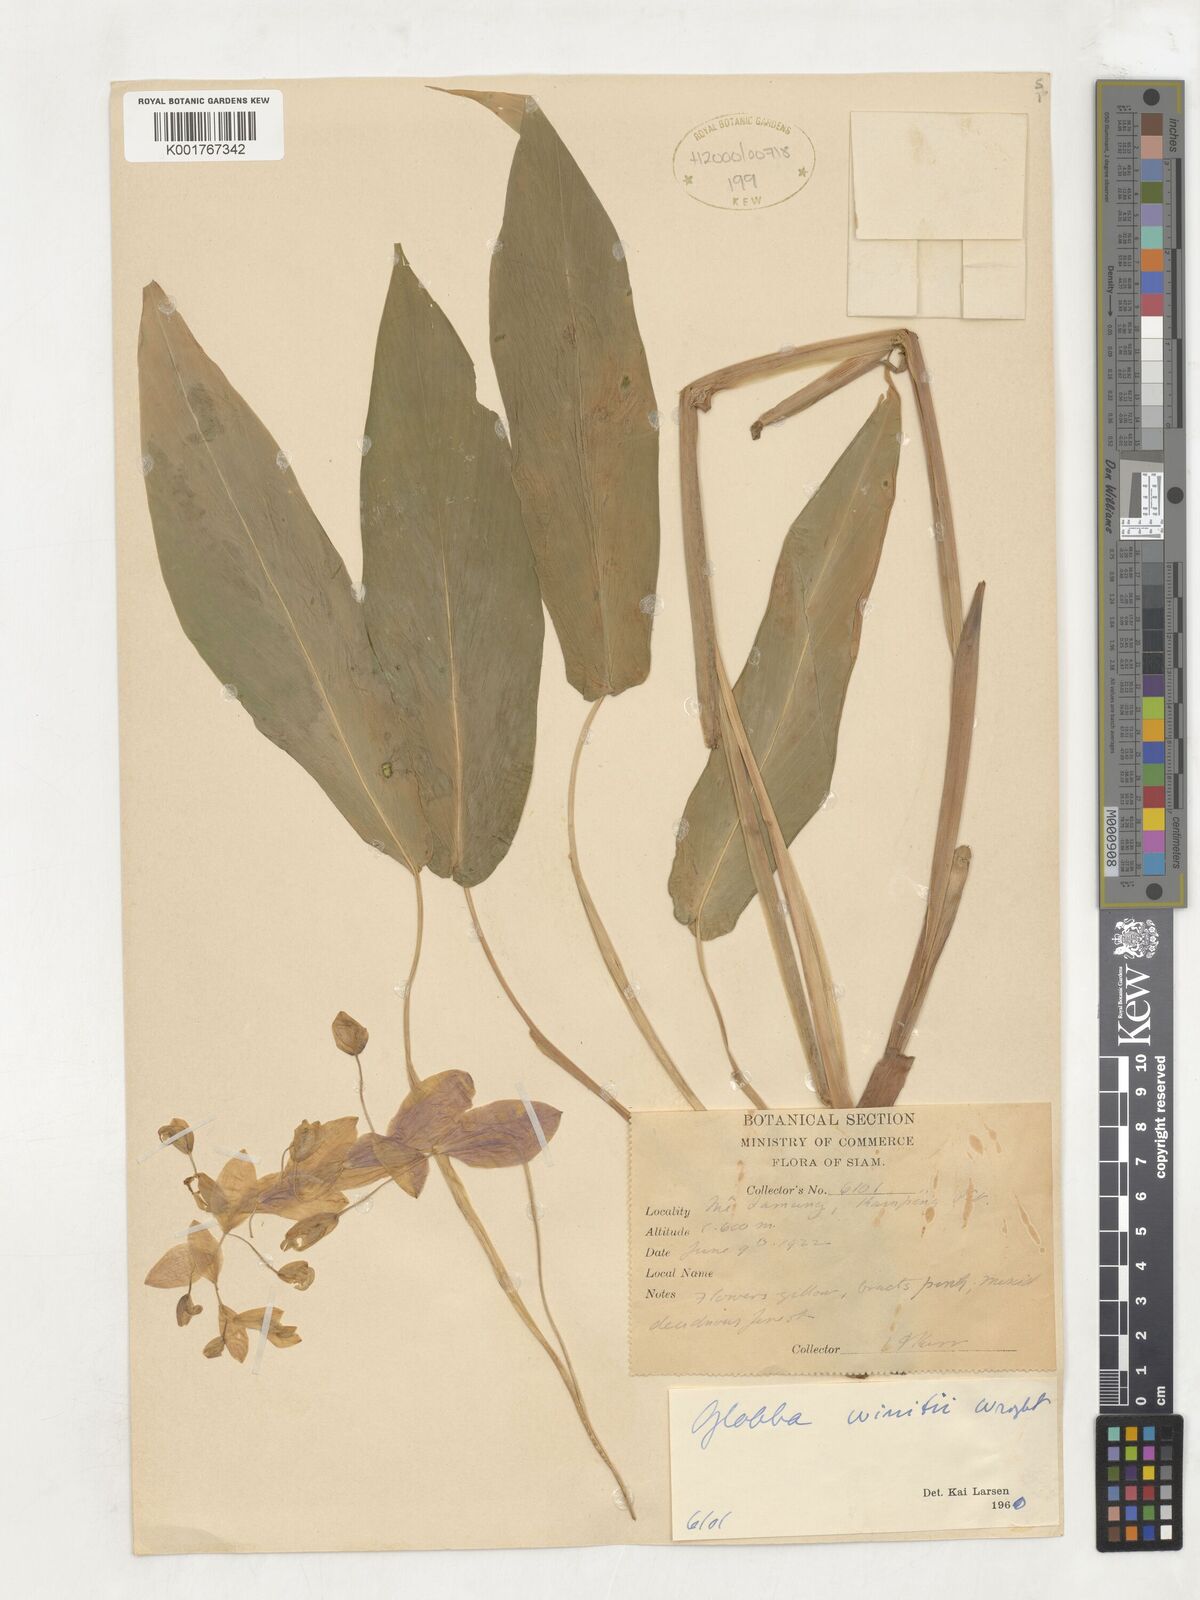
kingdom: Plantae
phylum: Tracheophyta
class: Liliopsida
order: Zingiberales
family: Zingiberaceae
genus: Globba
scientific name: Globba winitii
